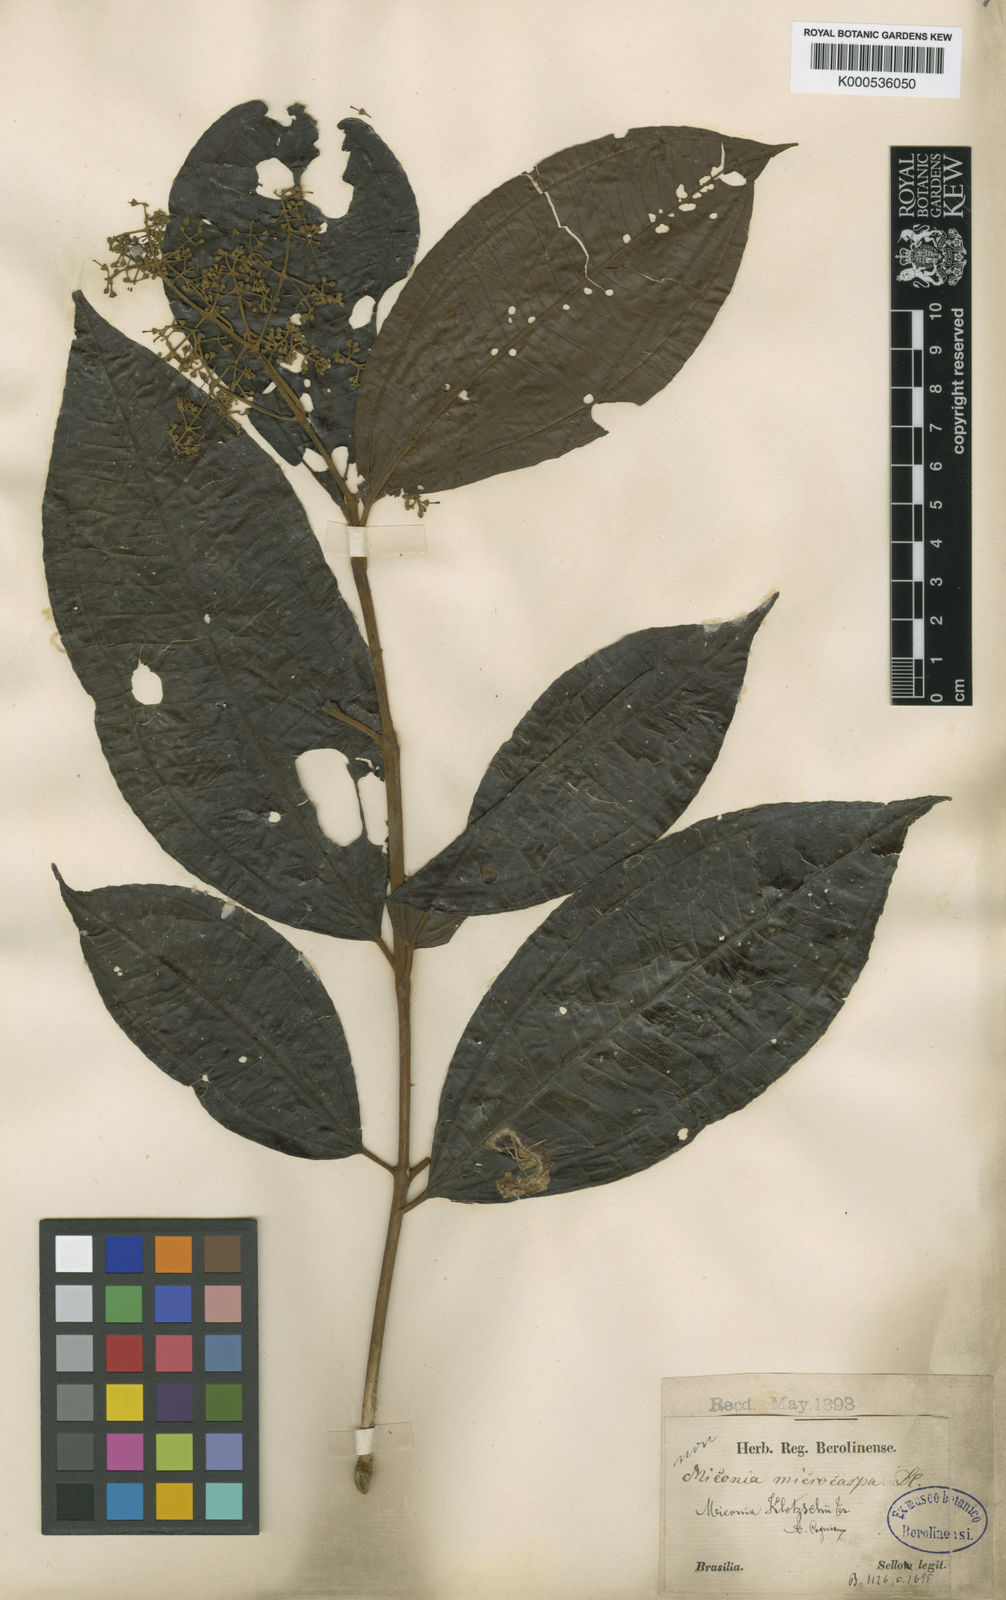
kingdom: Plantae
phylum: Tracheophyta
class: Magnoliopsida
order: Myrtales
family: Melastomataceae
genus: Miconia
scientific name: Miconia klotzschii
